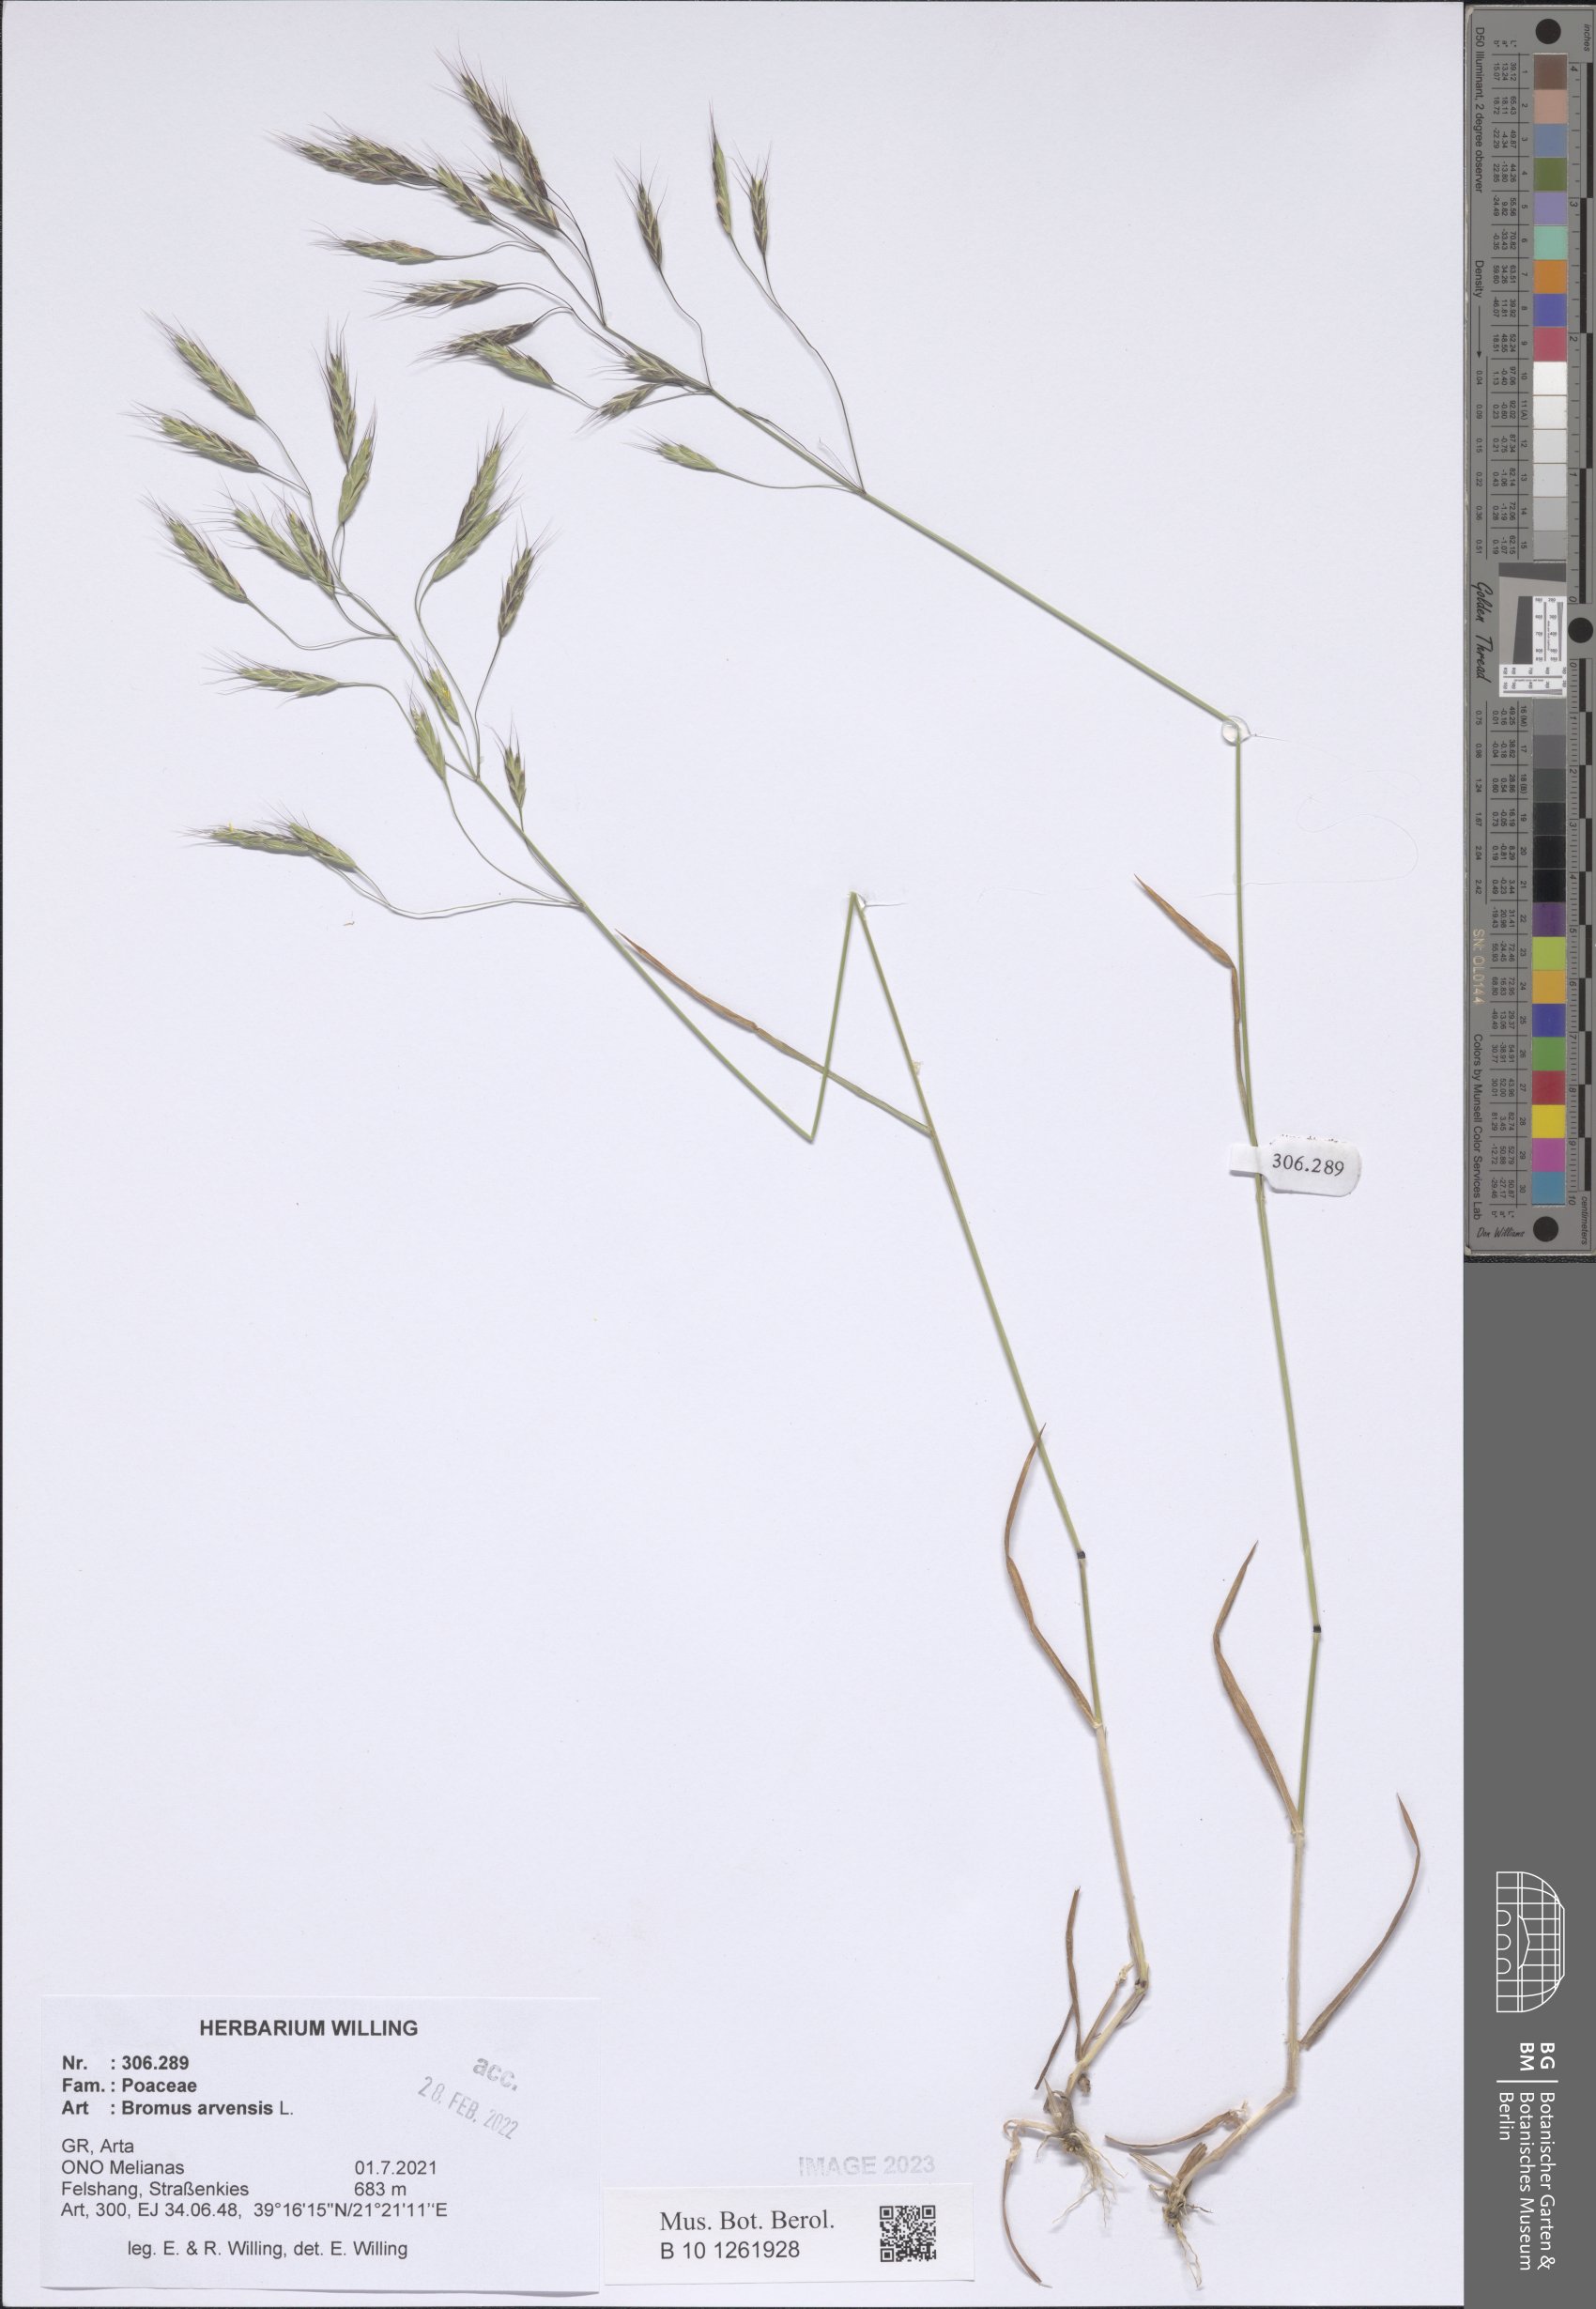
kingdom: Plantae
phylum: Tracheophyta
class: Liliopsida
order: Poales
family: Poaceae
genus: Bromus
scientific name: Bromus arvensis
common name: Field brome
